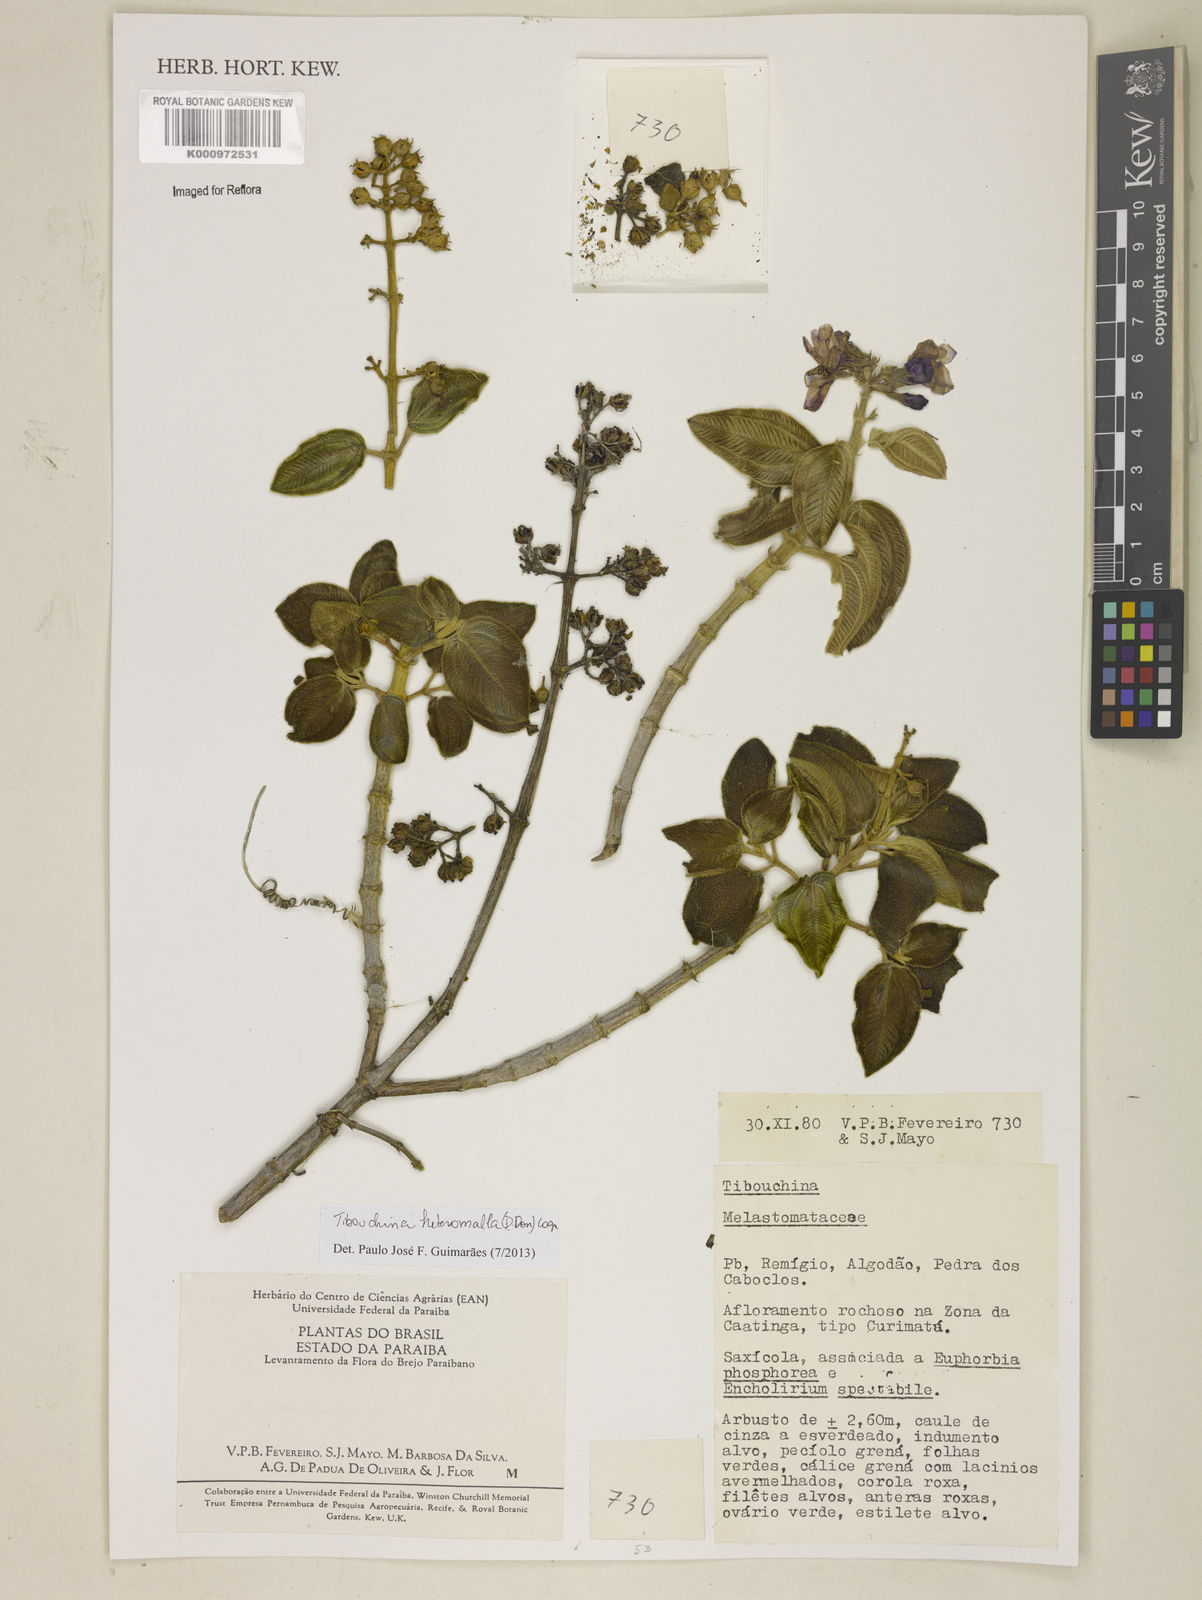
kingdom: Plantae
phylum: Tracheophyta
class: Magnoliopsida
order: Myrtales
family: Melastomataceae
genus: Pleroma
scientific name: Pleroma heteromallum
